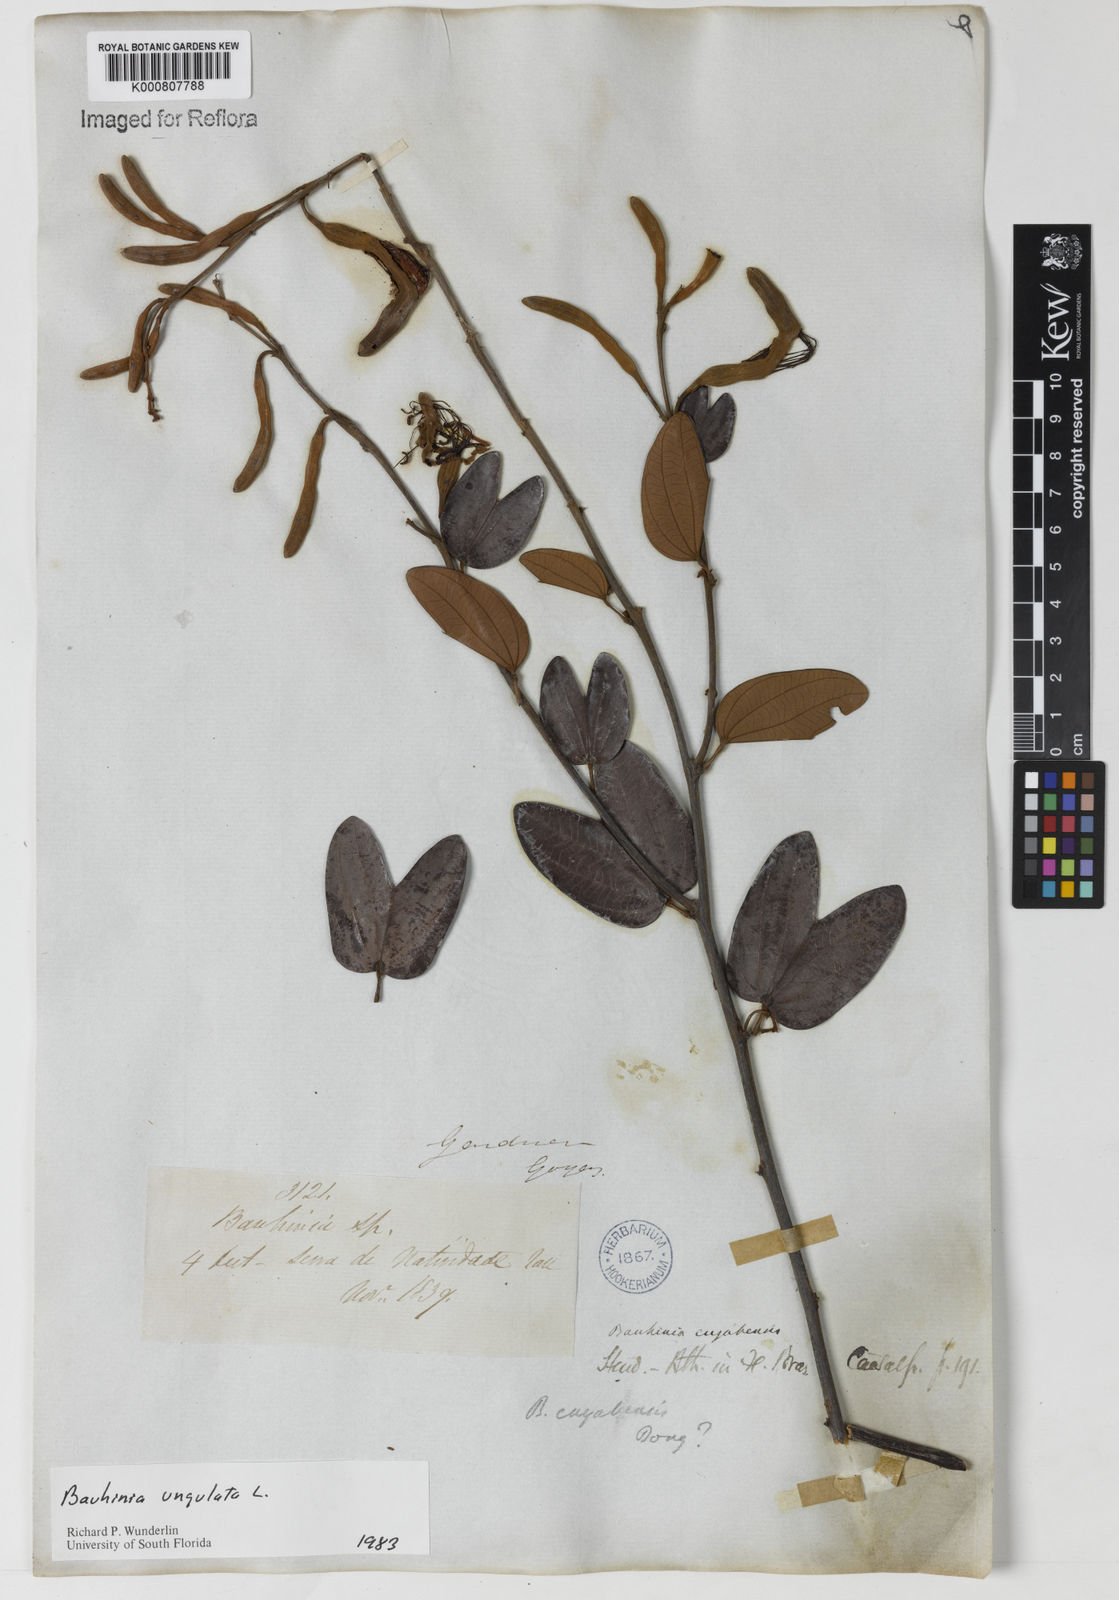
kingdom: Plantae
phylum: Tracheophyta
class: Magnoliopsida
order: Fabales
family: Fabaceae
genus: Bauhinia
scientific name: Bauhinia ungulata
